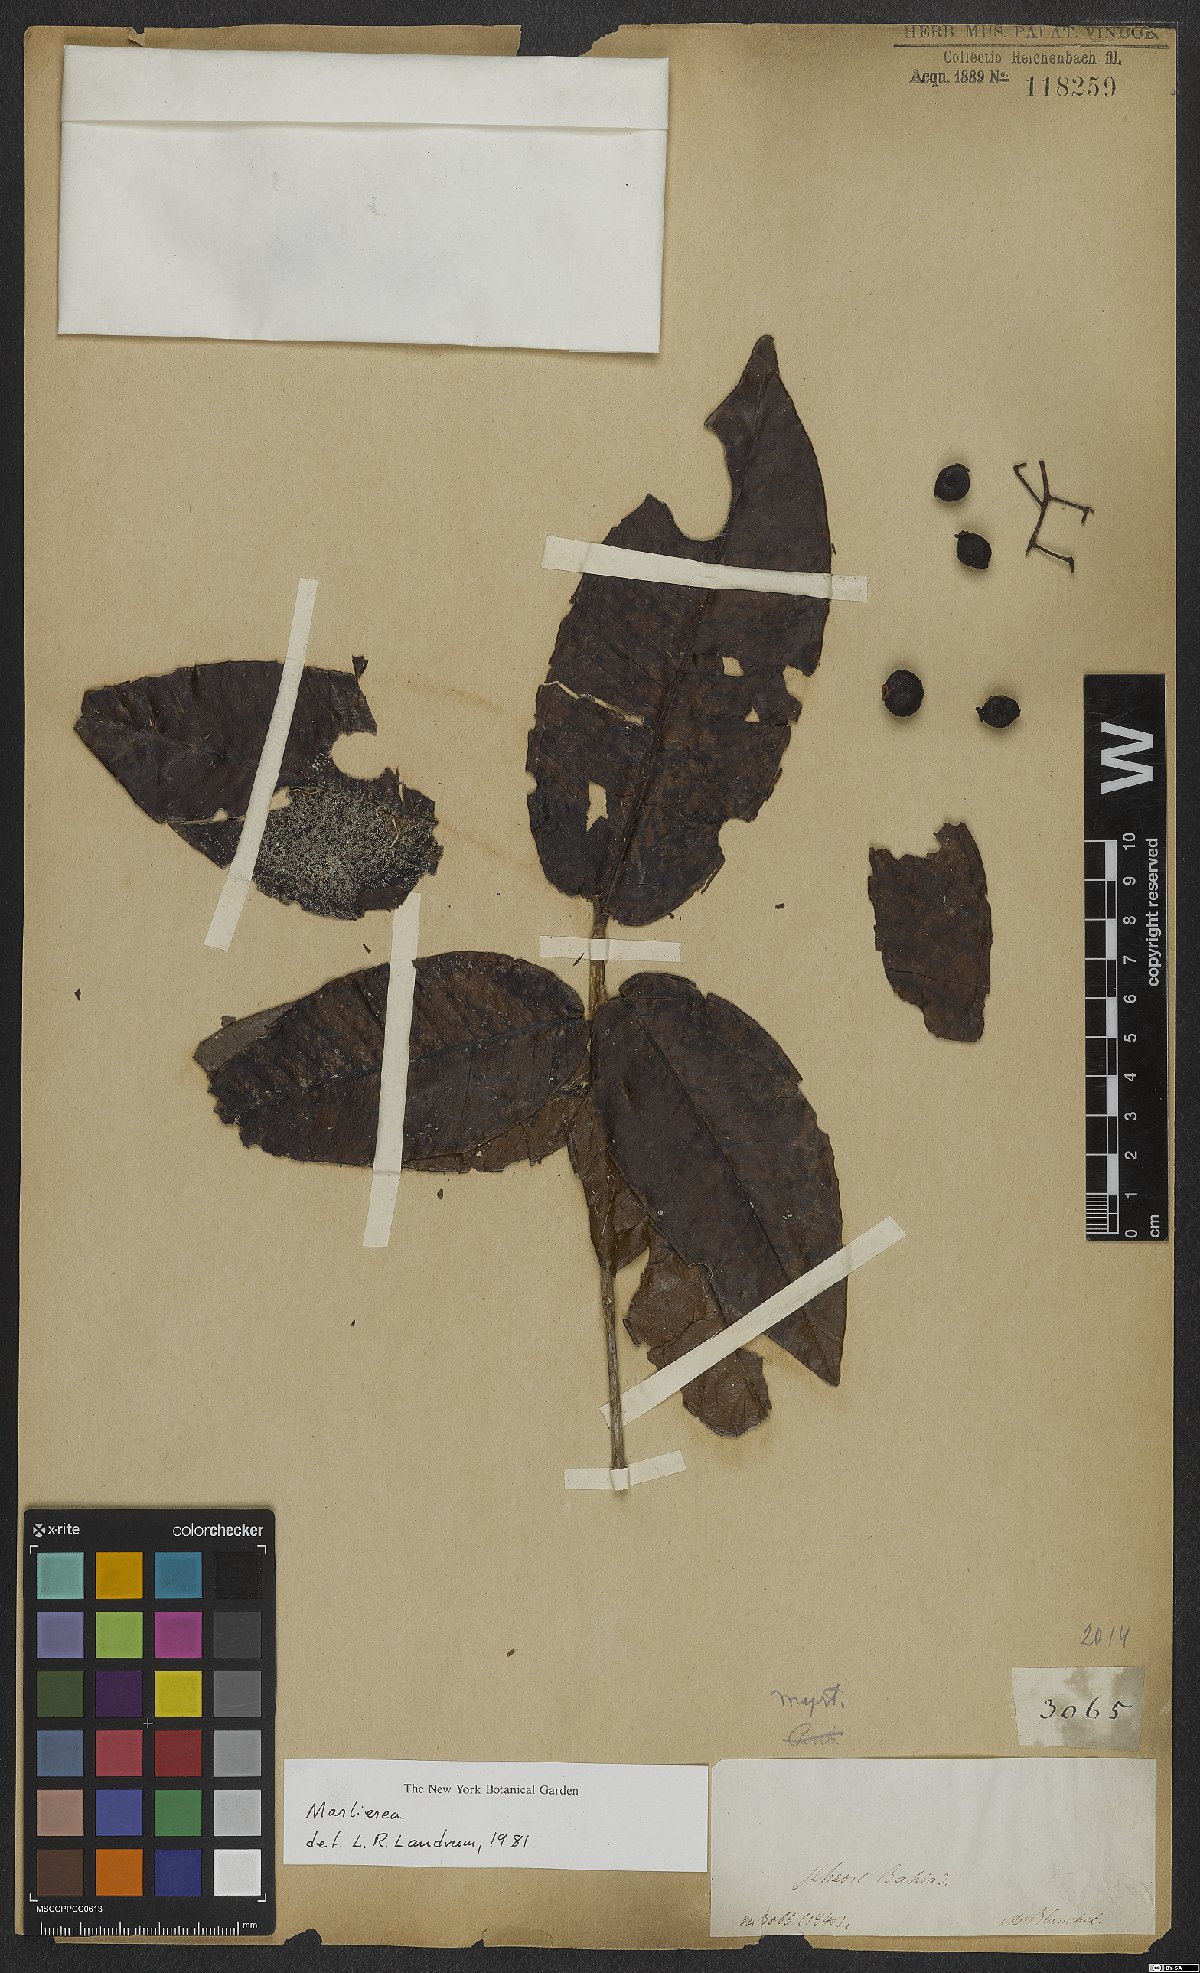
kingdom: Plantae
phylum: Tracheophyta
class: Magnoliopsida
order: Myrtales
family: Myrtaceae
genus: Marlierea
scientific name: Marlierea
